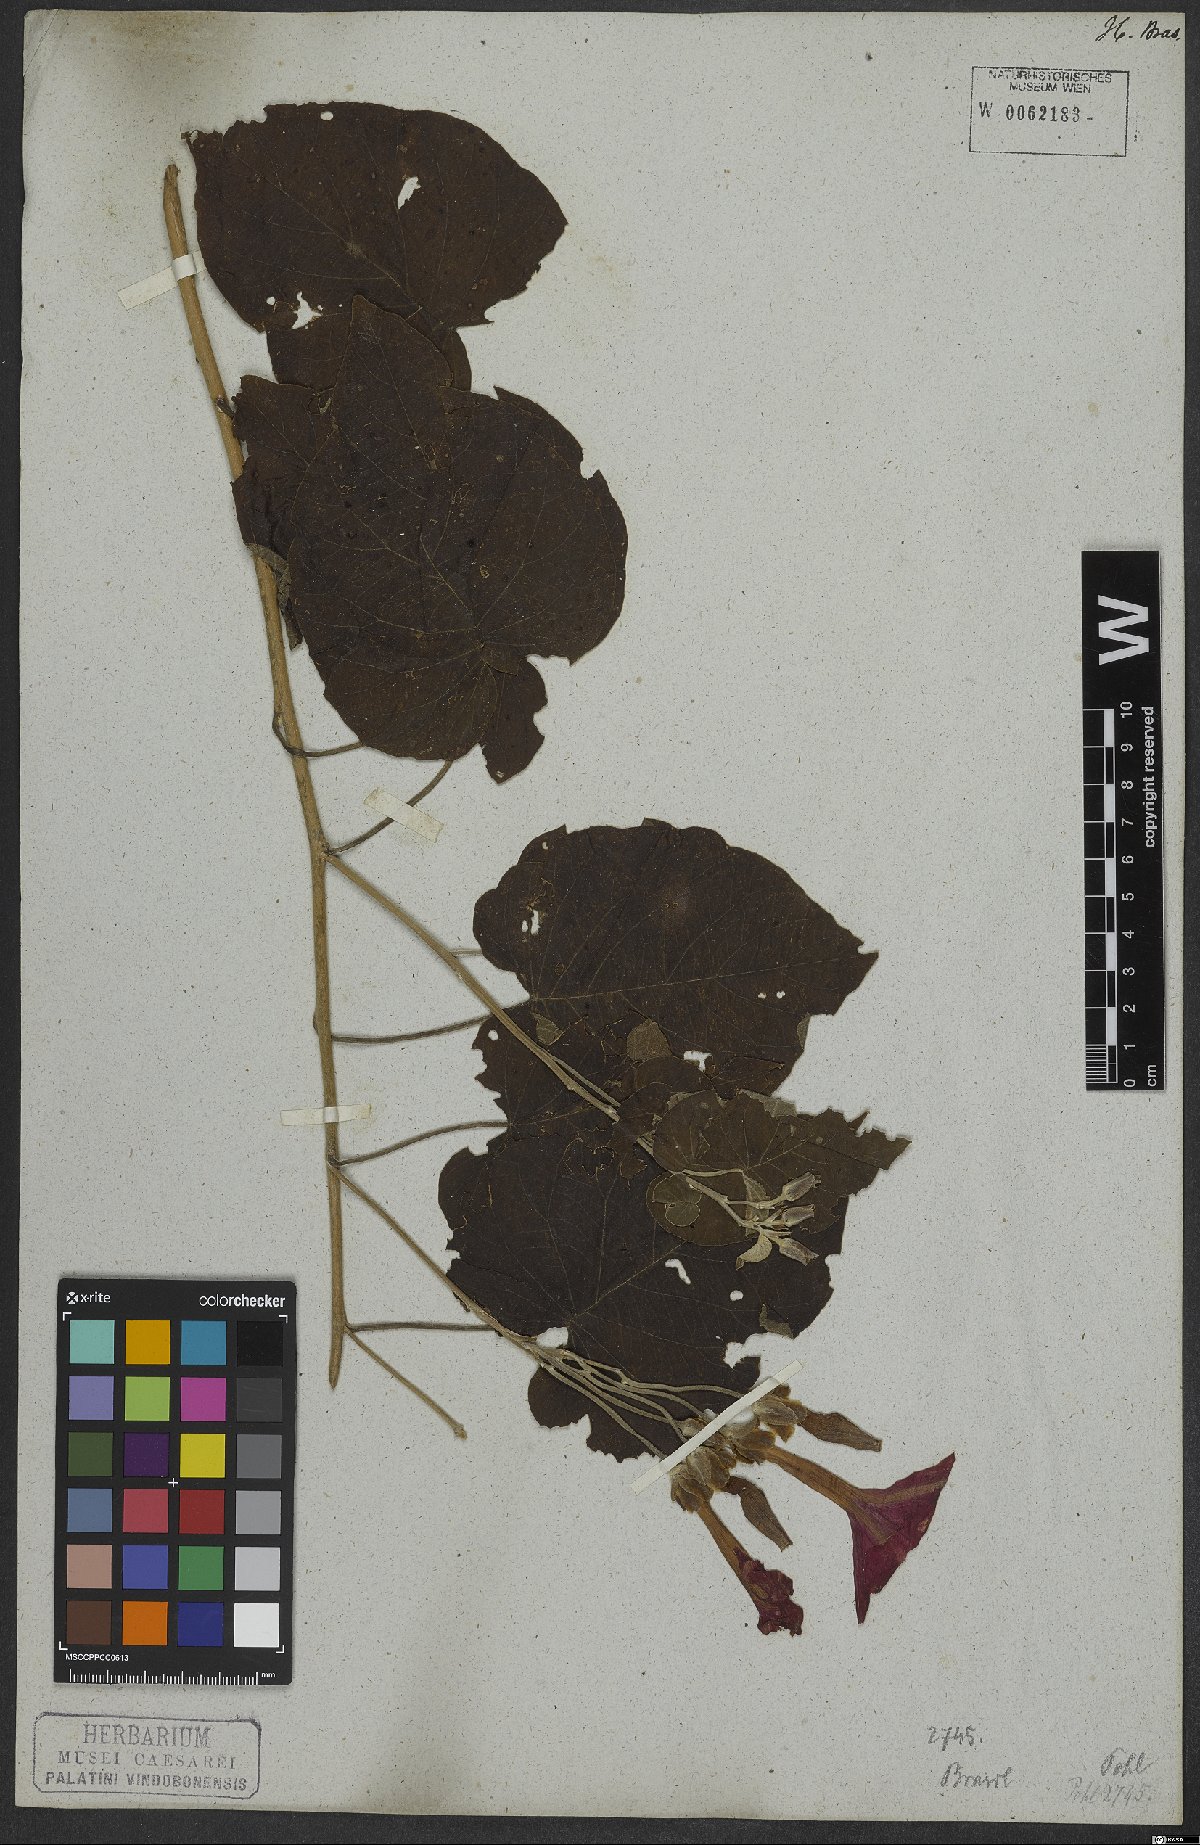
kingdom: Plantae
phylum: Tracheophyta
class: Magnoliopsida
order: Solanales
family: Convolvulaceae
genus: Ipomoea
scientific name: Ipomoea sidifolia
